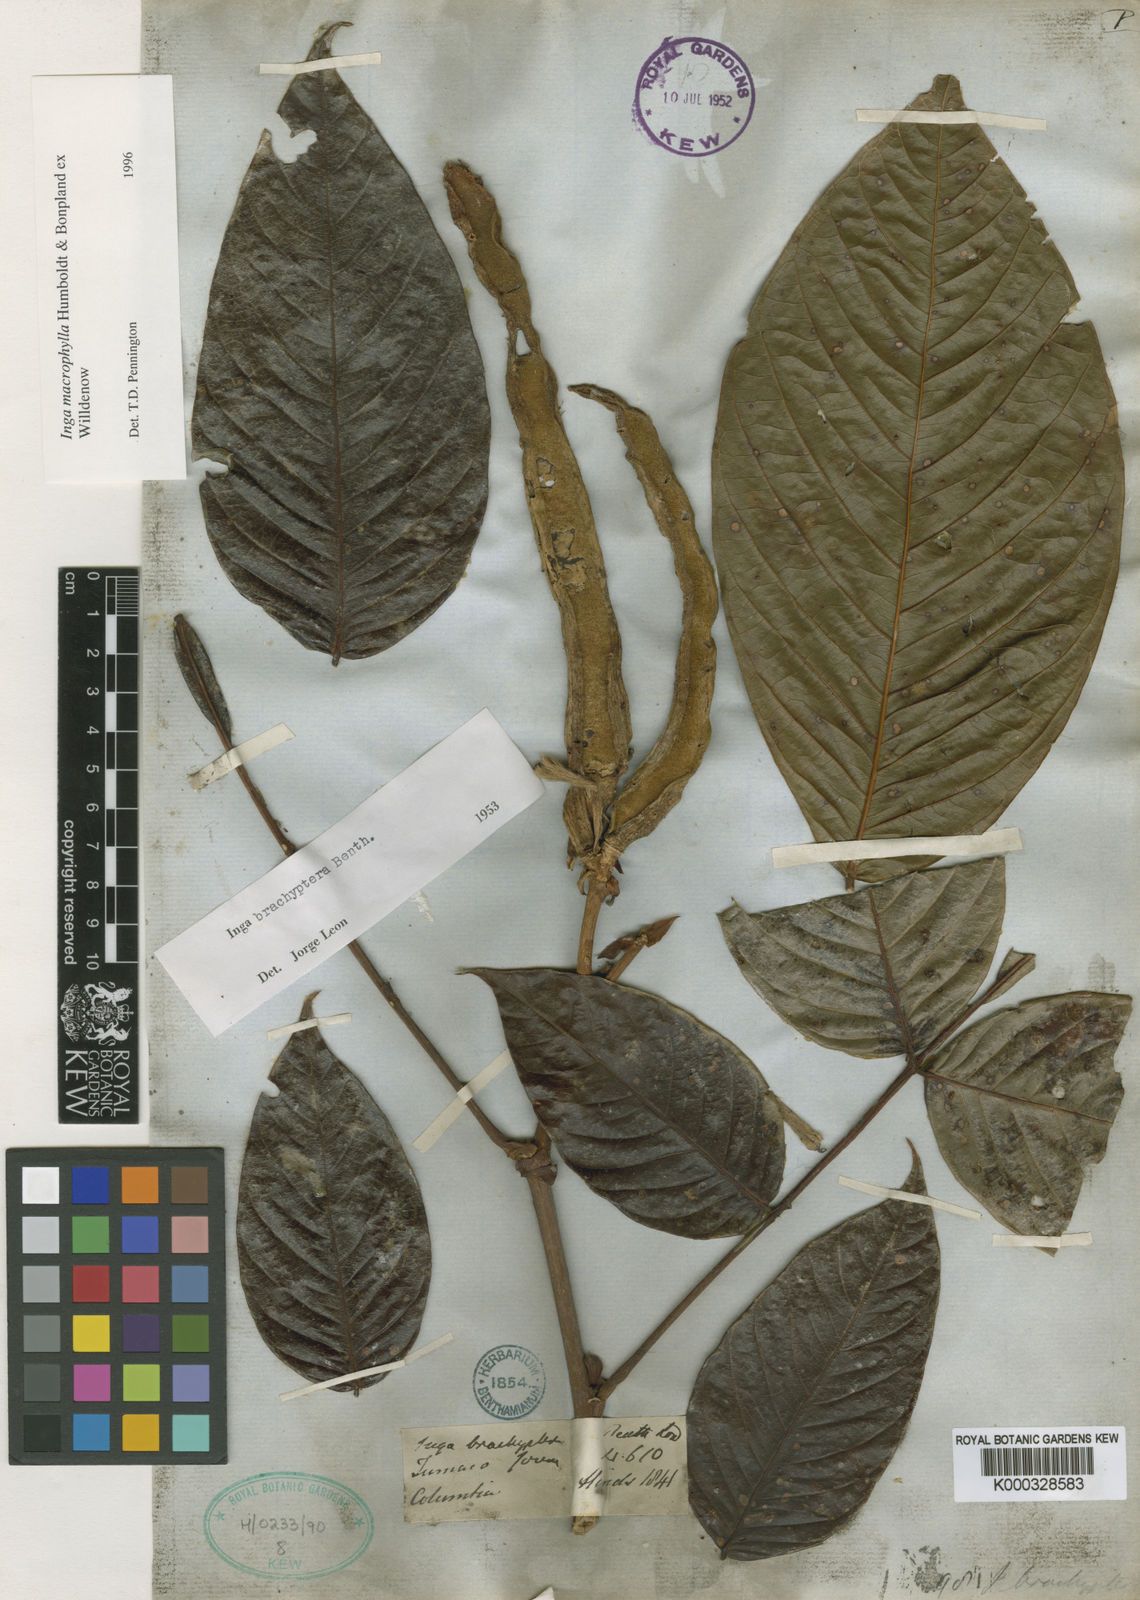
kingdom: Plantae
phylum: Tracheophyta
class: Magnoliopsida
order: Fabales
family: Fabaceae
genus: Inga
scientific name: Inga macrophylla
